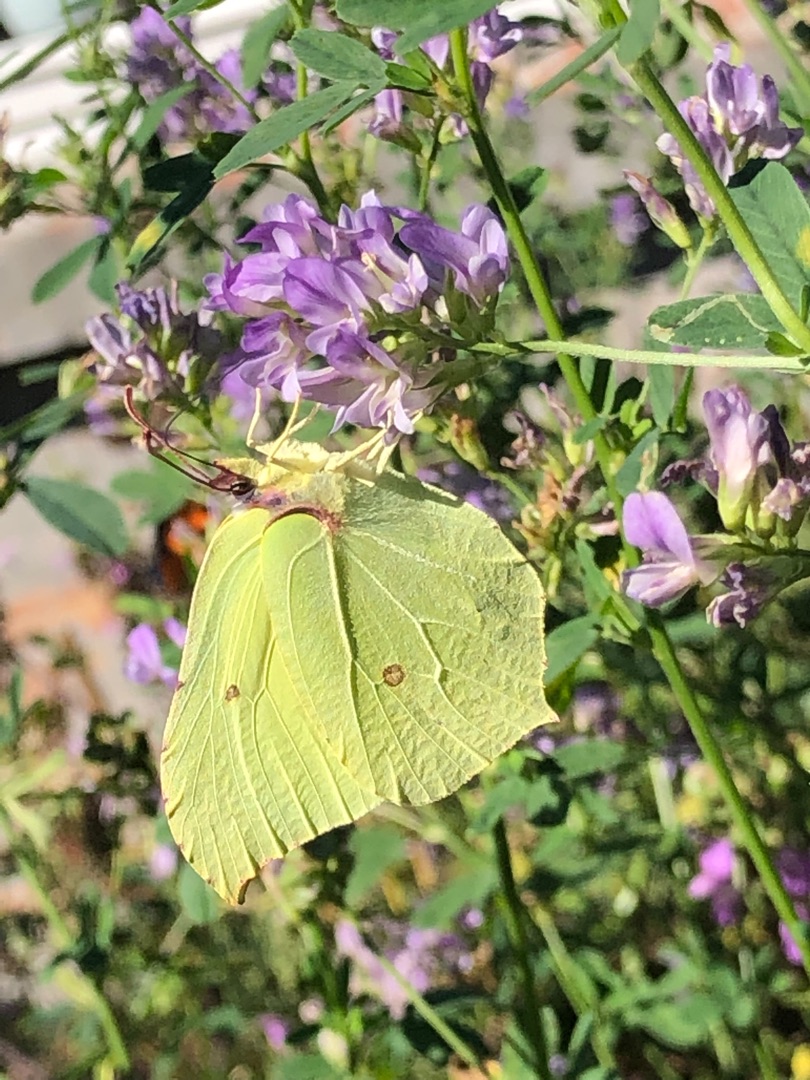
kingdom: Animalia
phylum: Arthropoda
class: Insecta
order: Lepidoptera
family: Pieridae
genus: Gonepteryx
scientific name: Gonepteryx rhamni
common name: Citronsommerfugl
